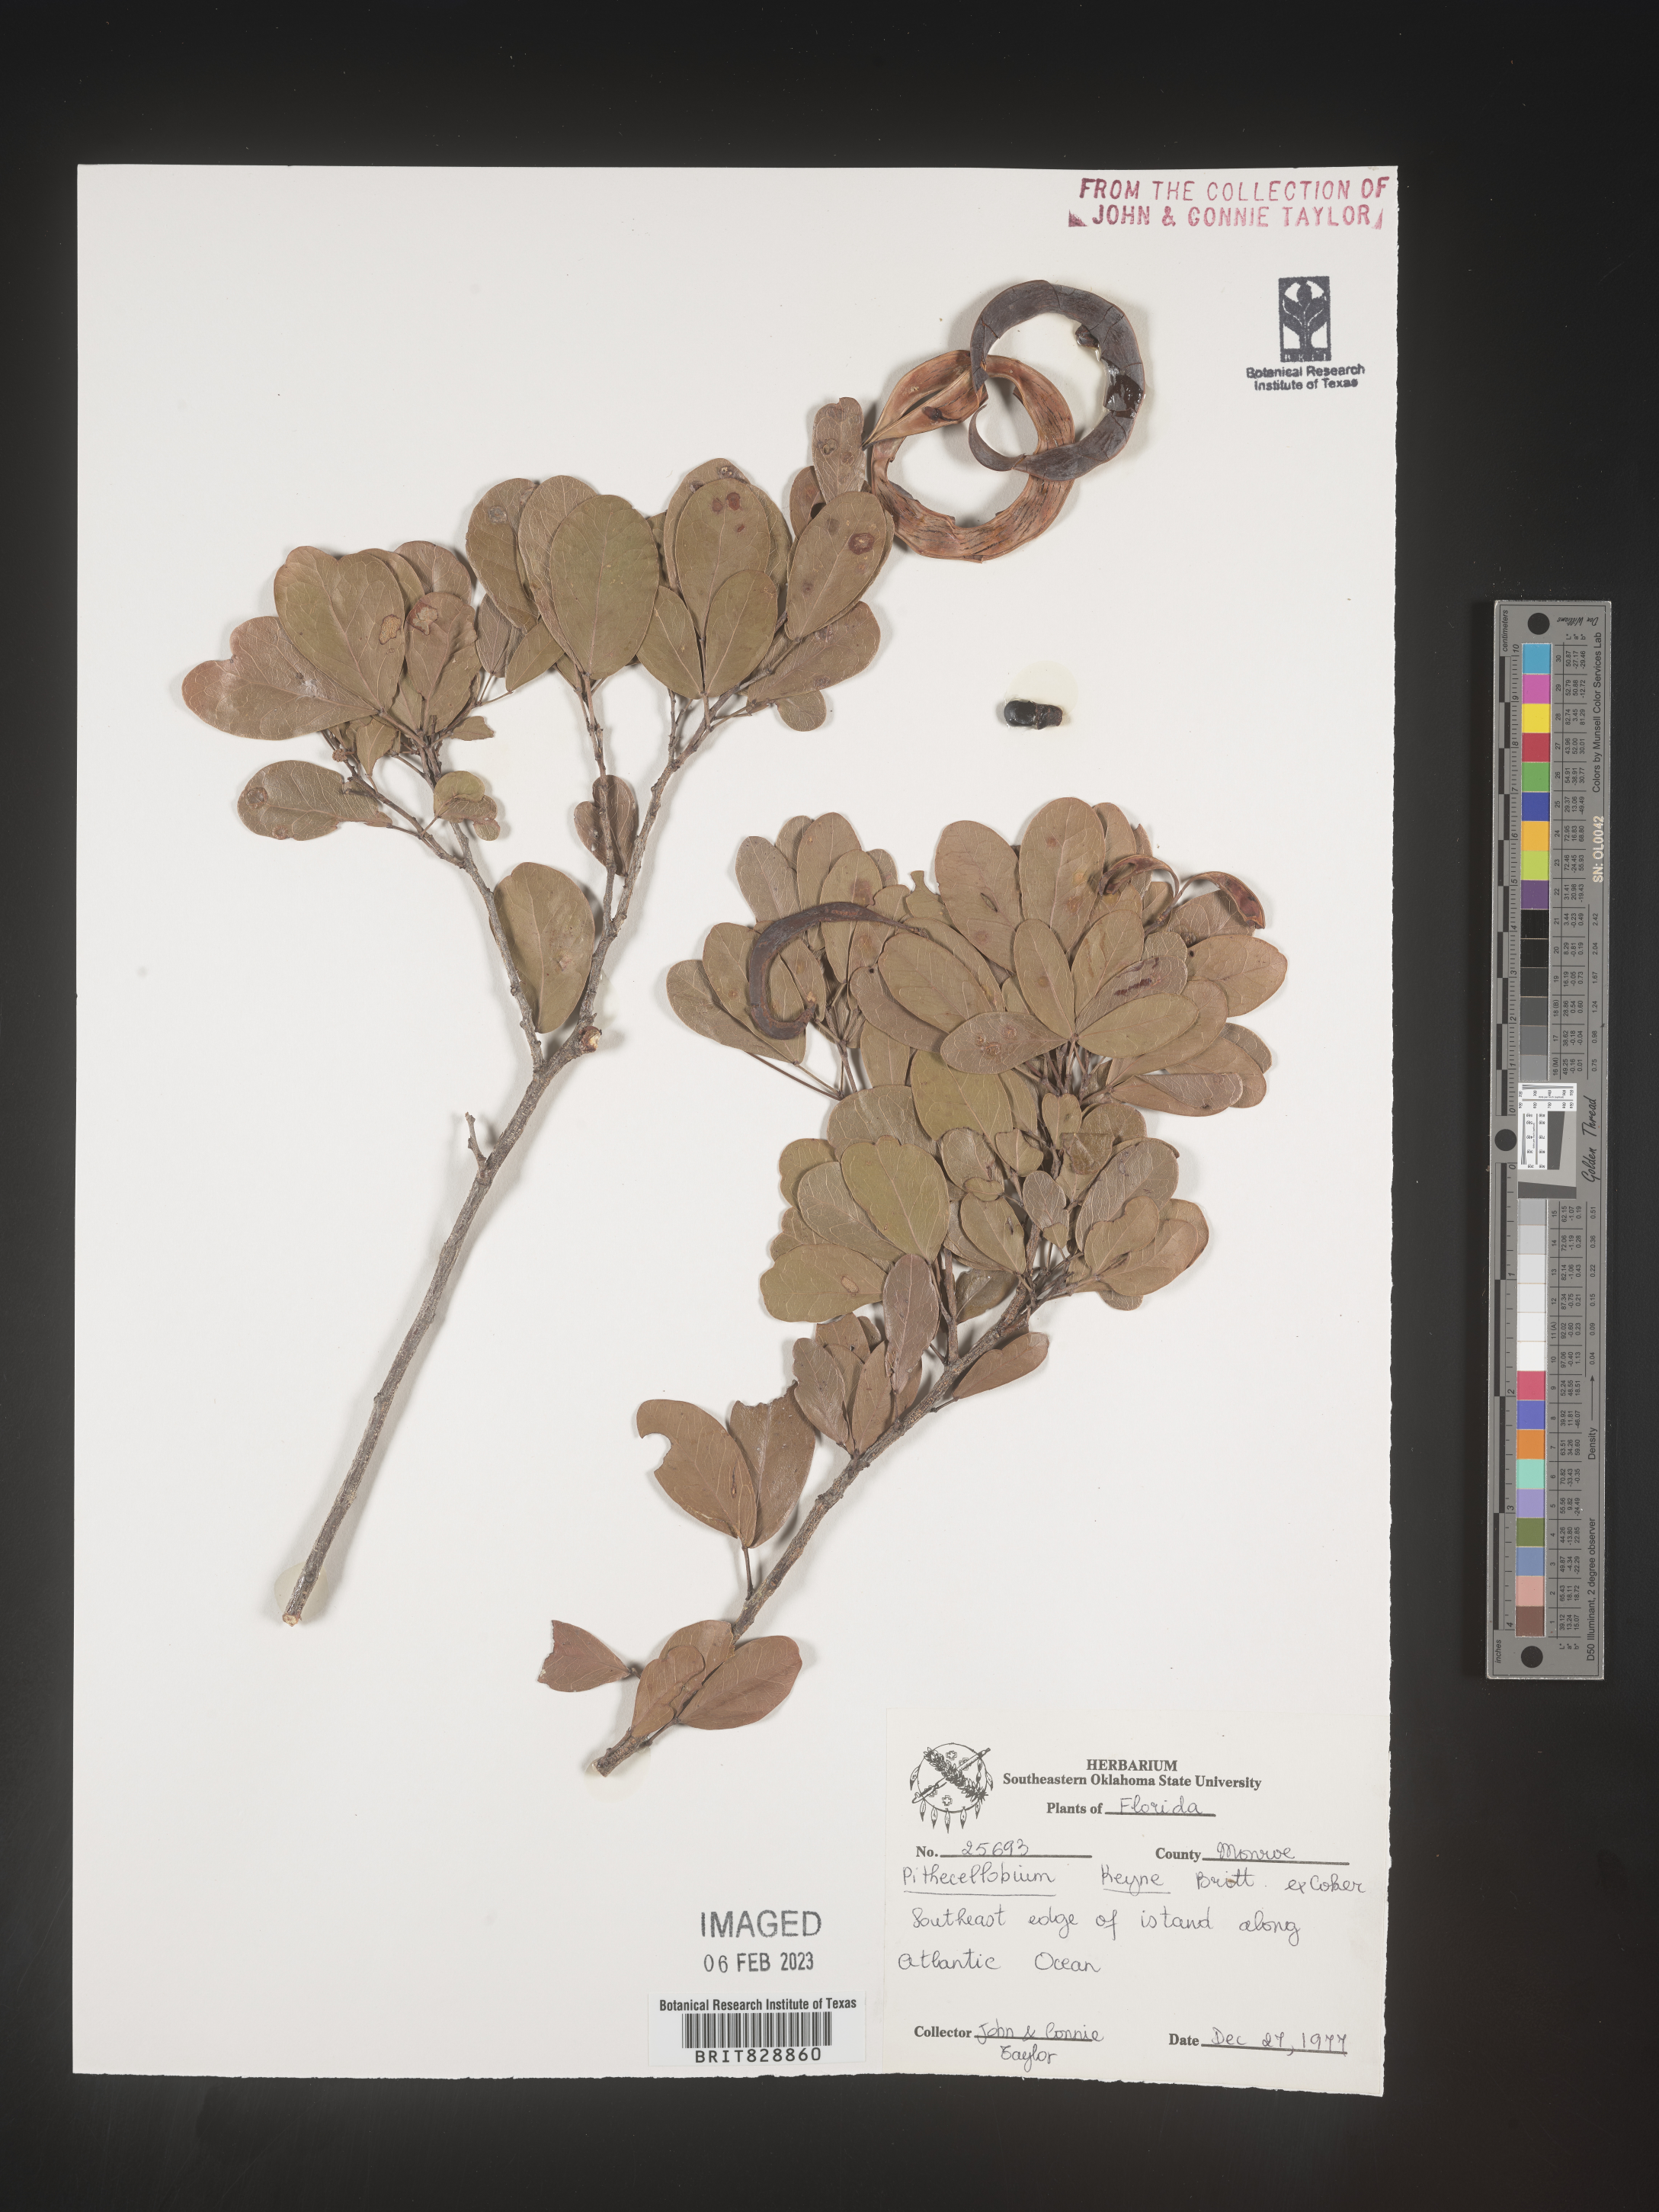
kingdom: Plantae
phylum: Tracheophyta
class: Magnoliopsida
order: Fabales
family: Fabaceae
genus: Pithecellobium
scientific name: Pithecellobium
